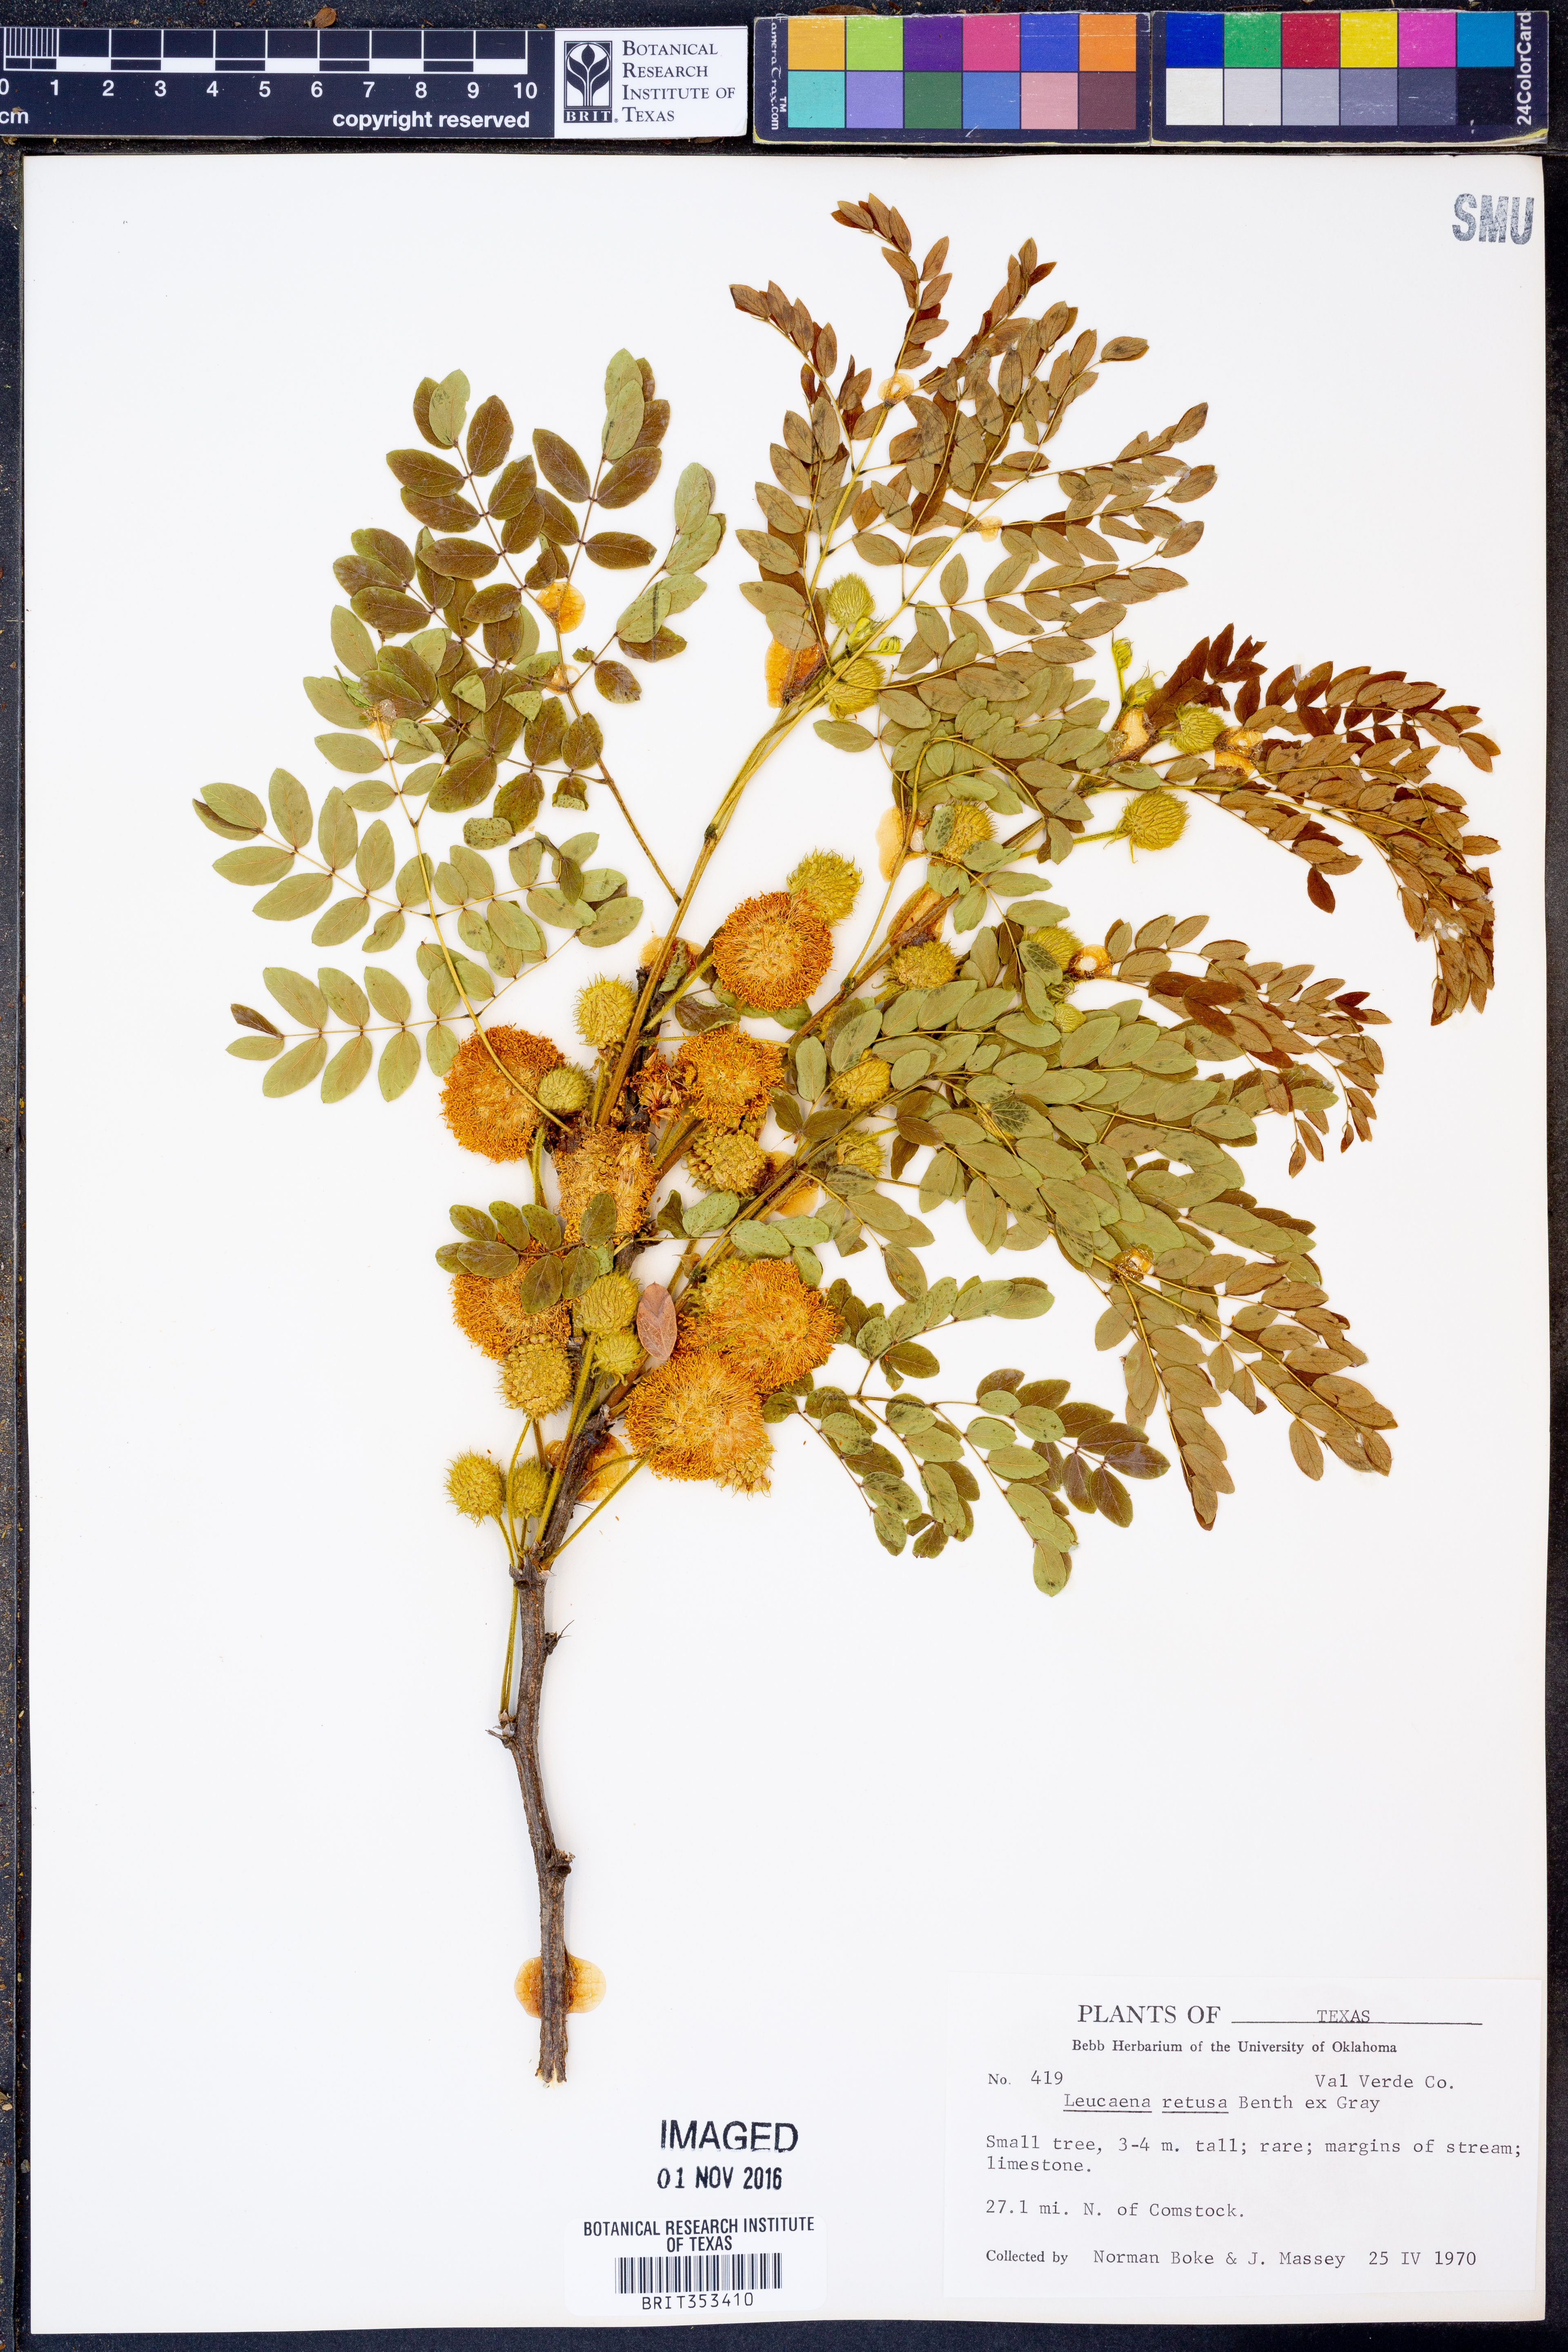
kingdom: Plantae
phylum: Tracheophyta
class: Magnoliopsida
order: Fabales
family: Fabaceae
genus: Leucaena
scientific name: Leucaena retusa
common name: Littleleaf leadtree
